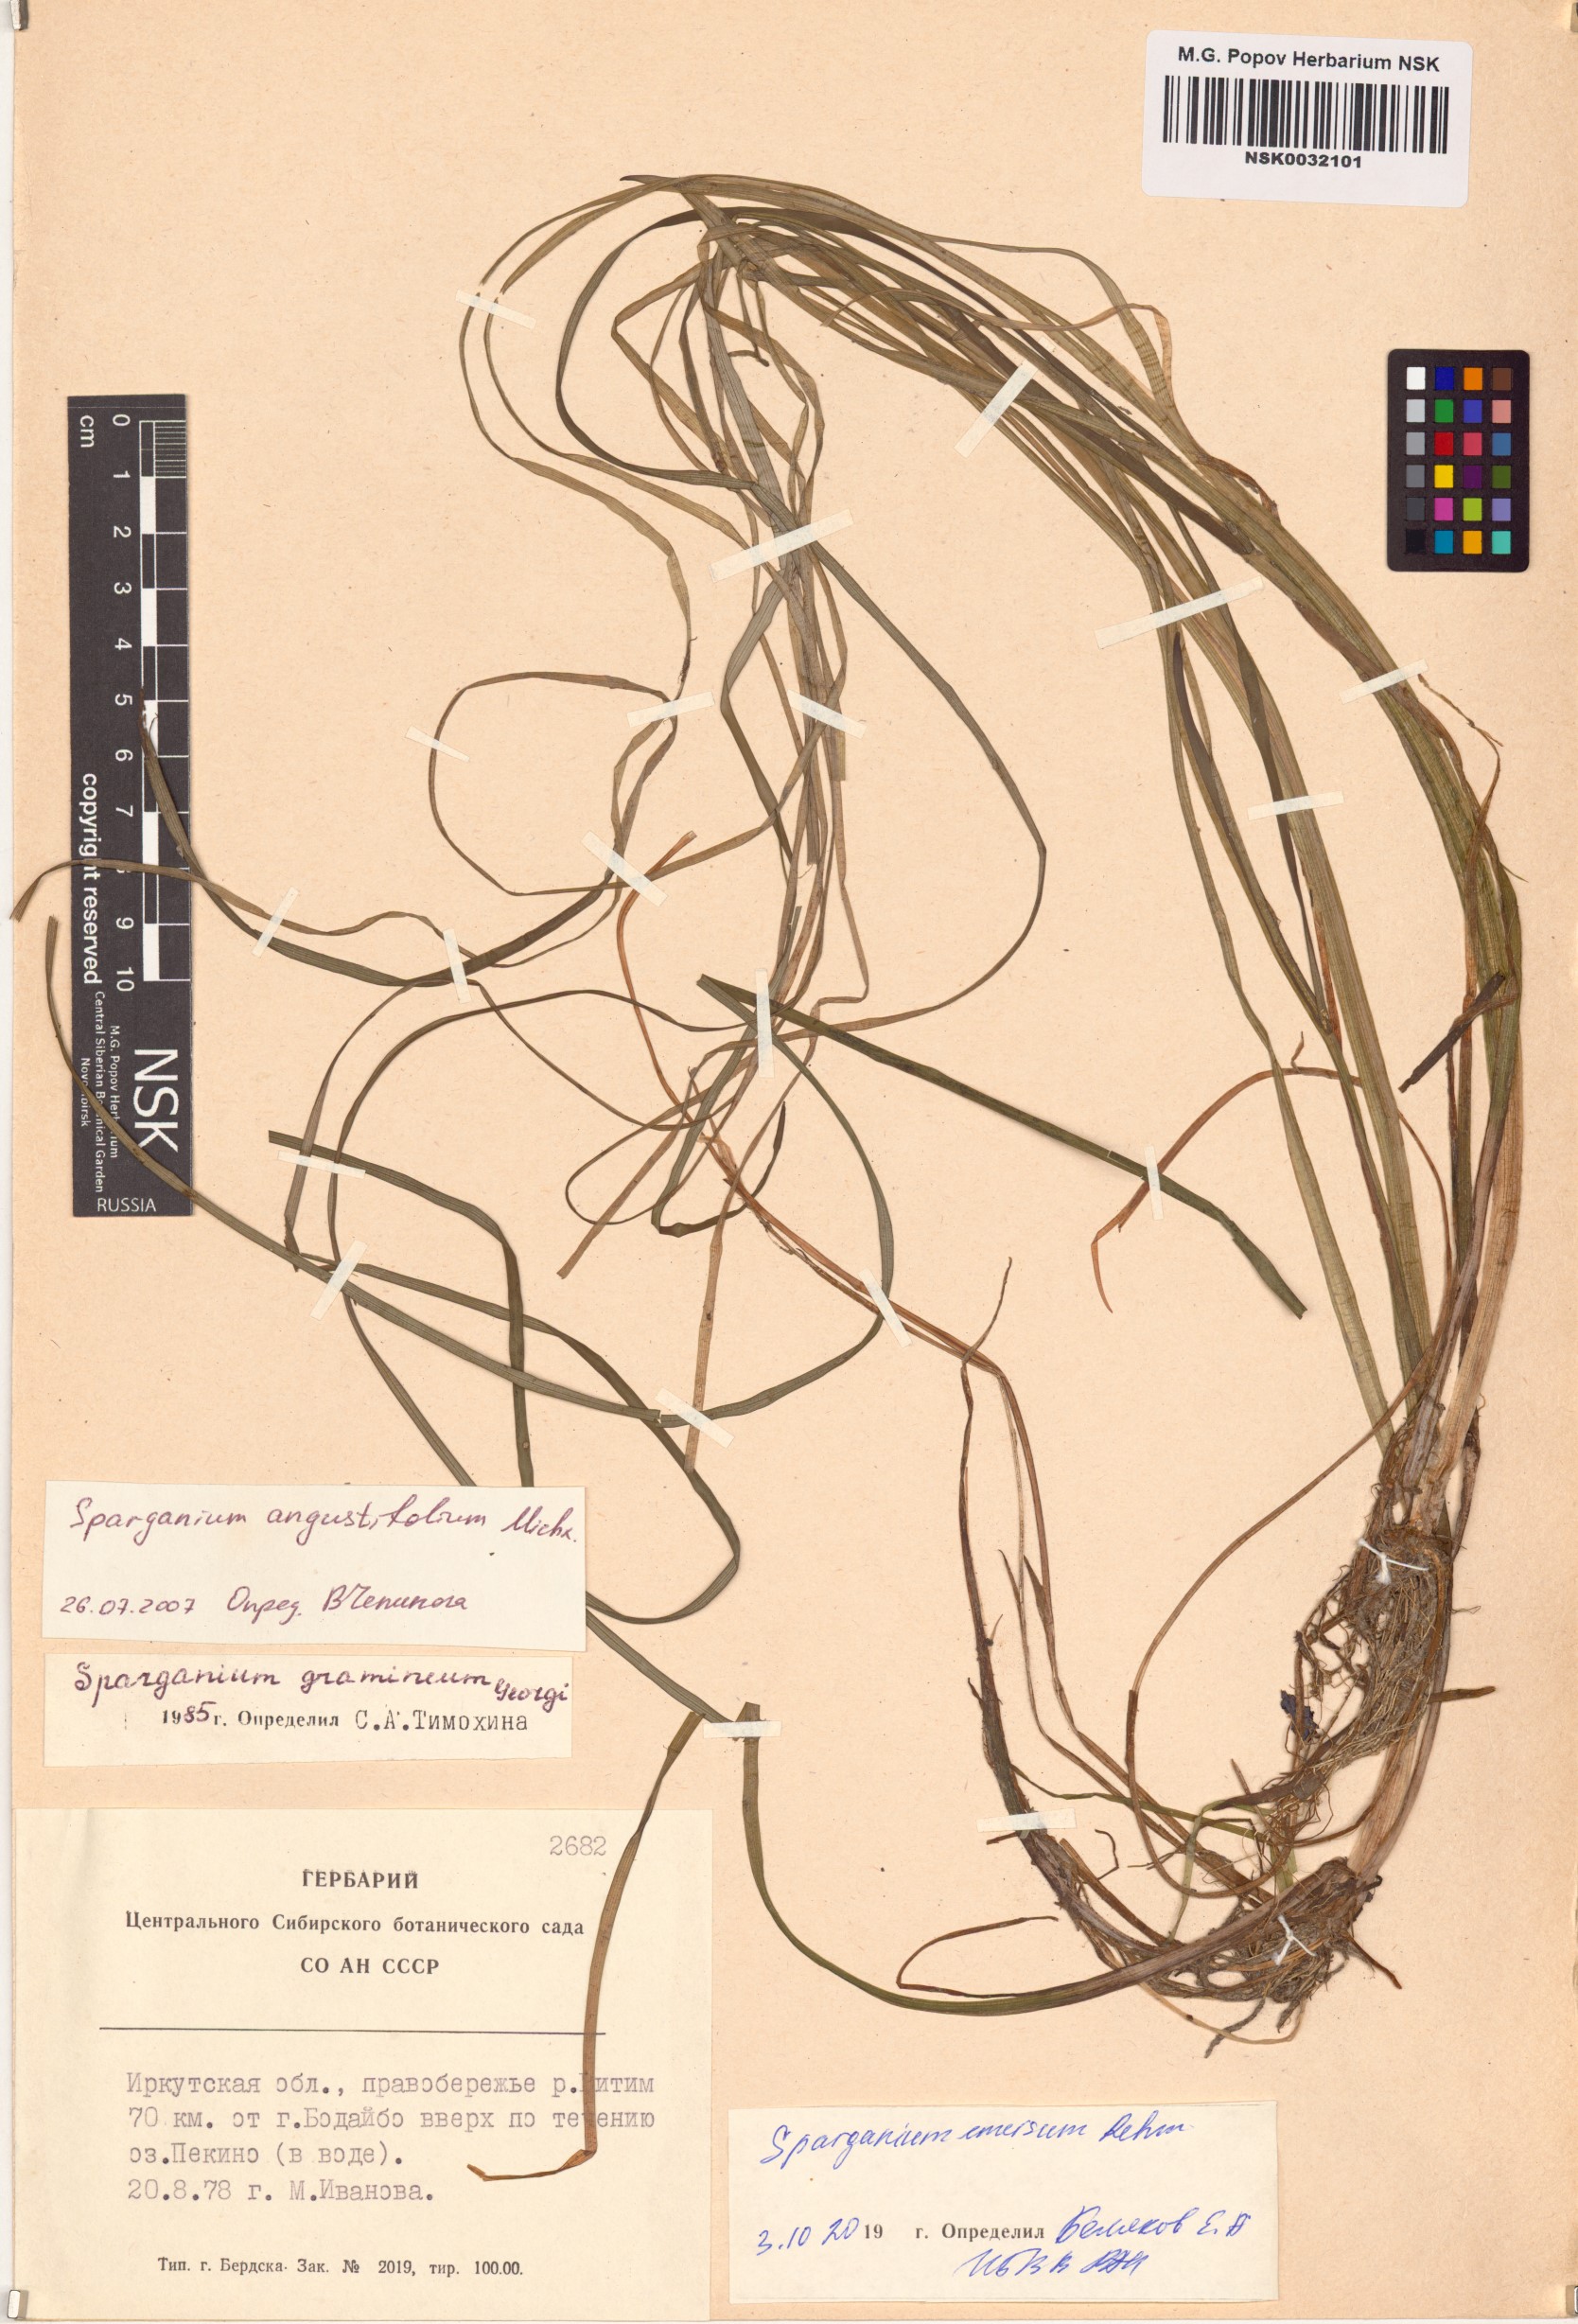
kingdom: Plantae
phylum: Tracheophyta
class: Liliopsida
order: Poales
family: Typhaceae
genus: Sparganium
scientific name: Sparganium emersum
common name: Unbranched bur-reed
